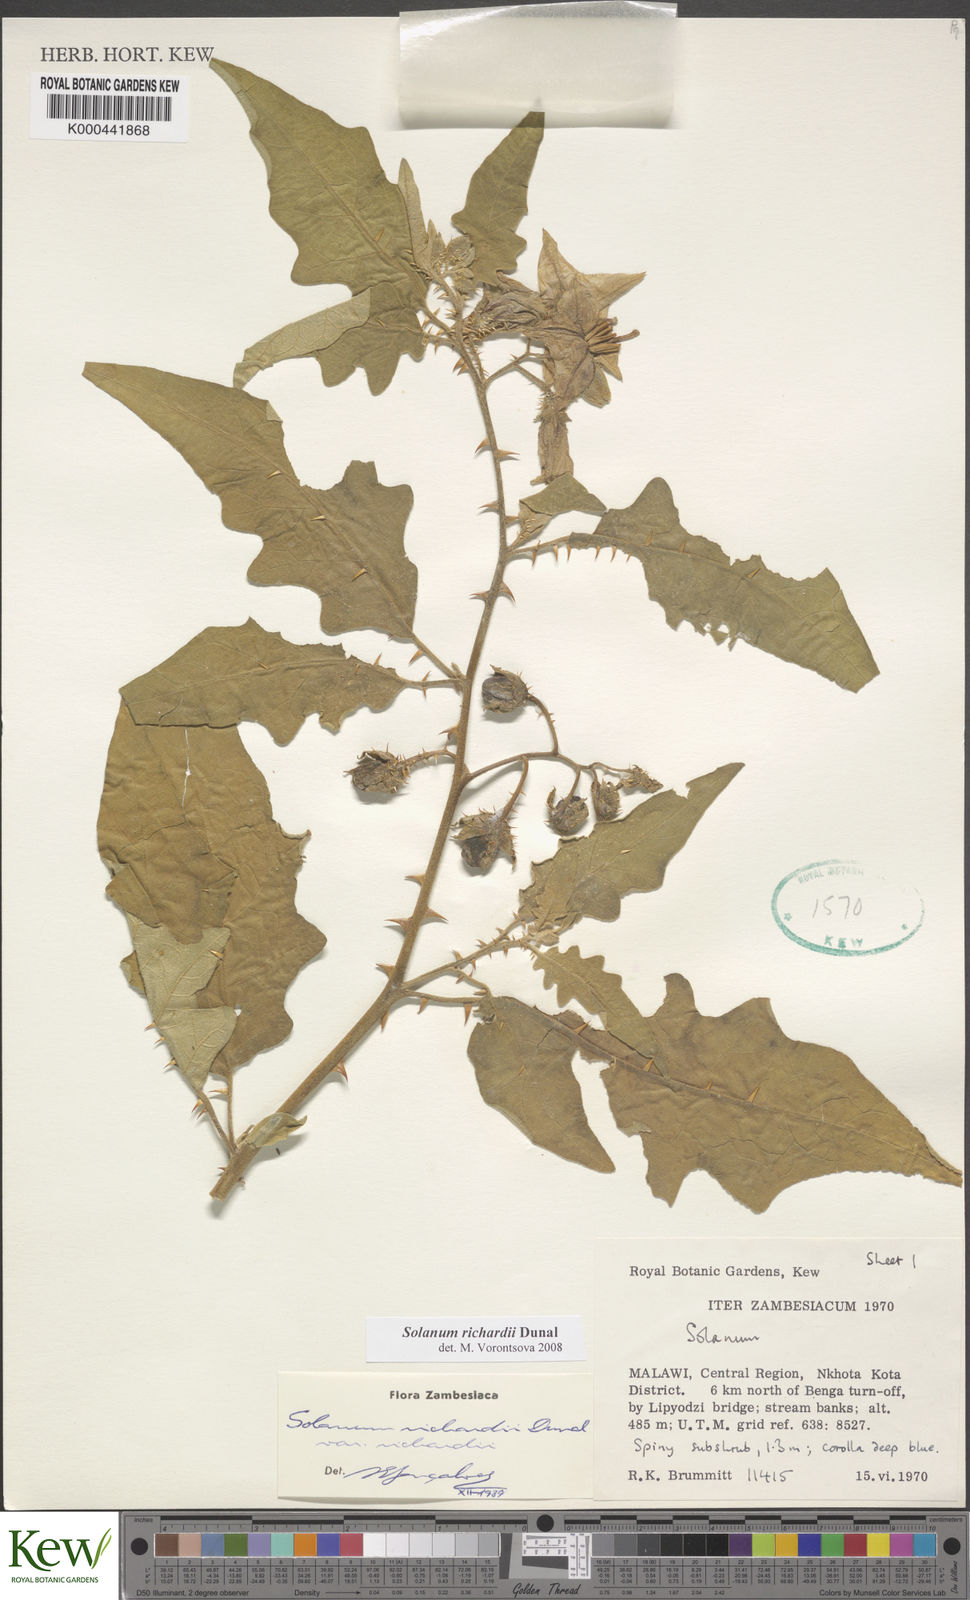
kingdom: Plantae
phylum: Tracheophyta
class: Magnoliopsida
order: Solanales
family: Solanaceae
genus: Solanum
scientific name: Solanum richardii
